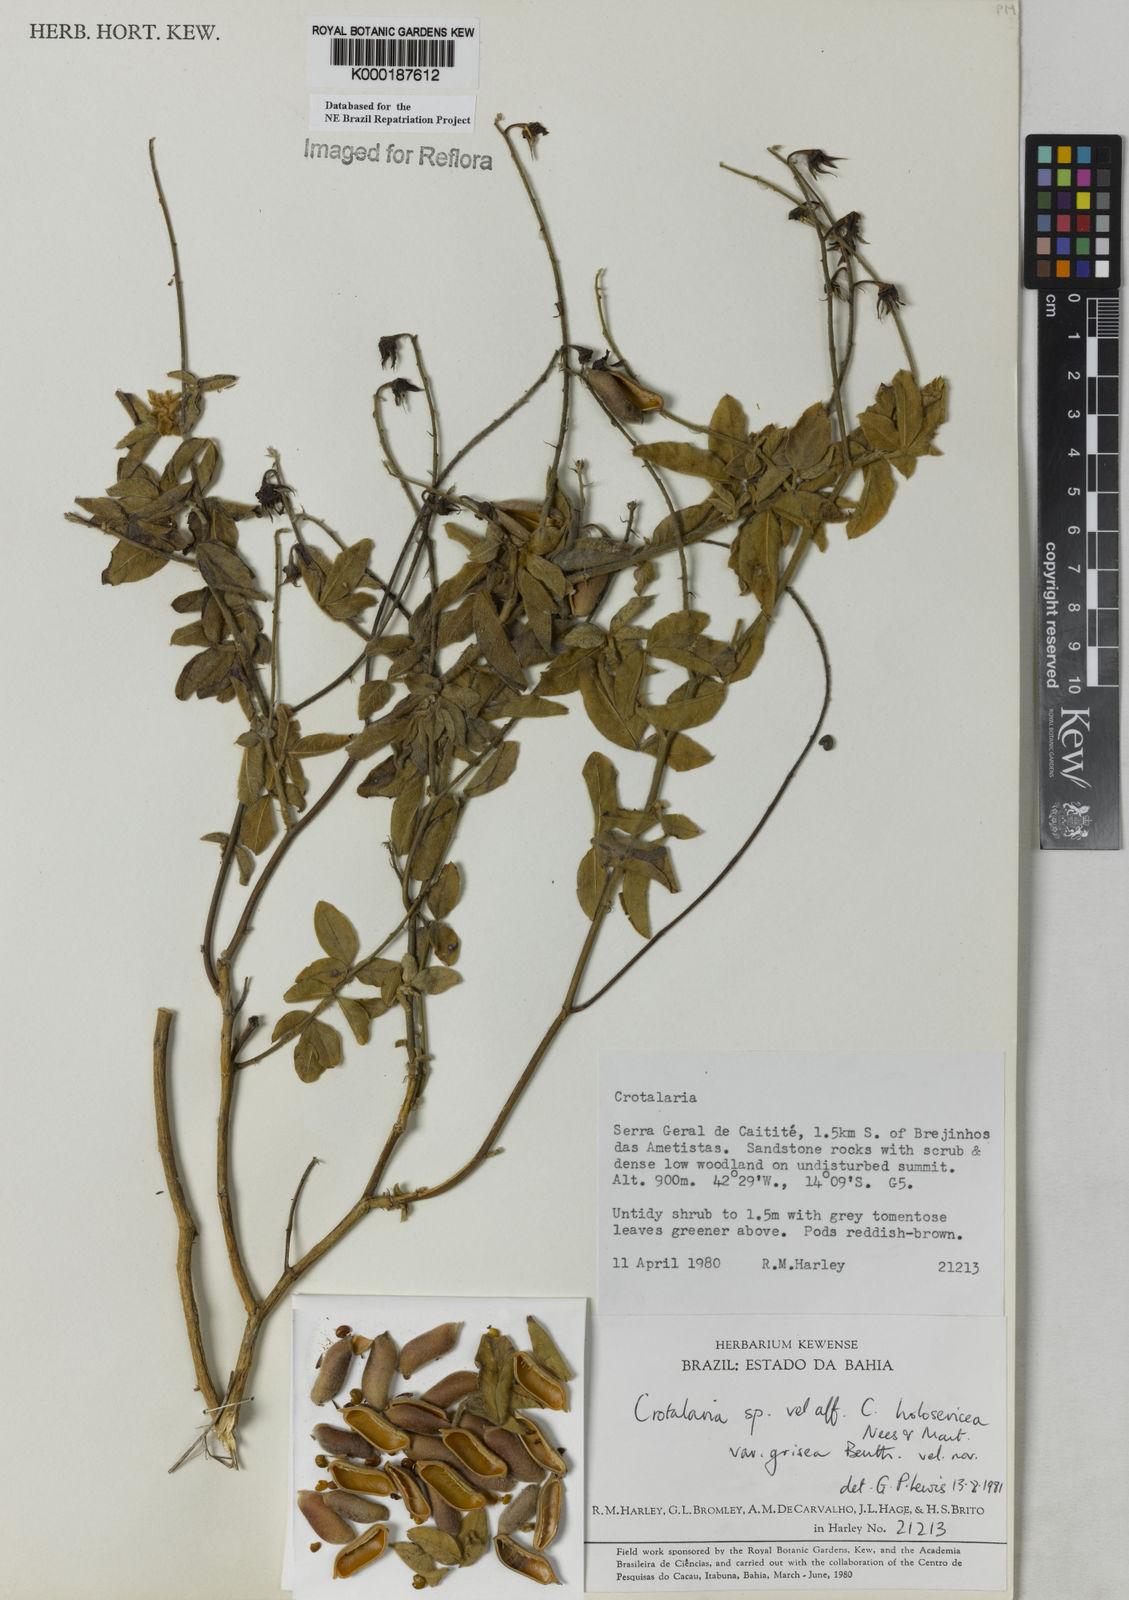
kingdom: Plantae
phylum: Tracheophyta
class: Magnoliopsida
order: Fabales
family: Fabaceae
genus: Crotalaria
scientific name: Crotalaria holosericea
